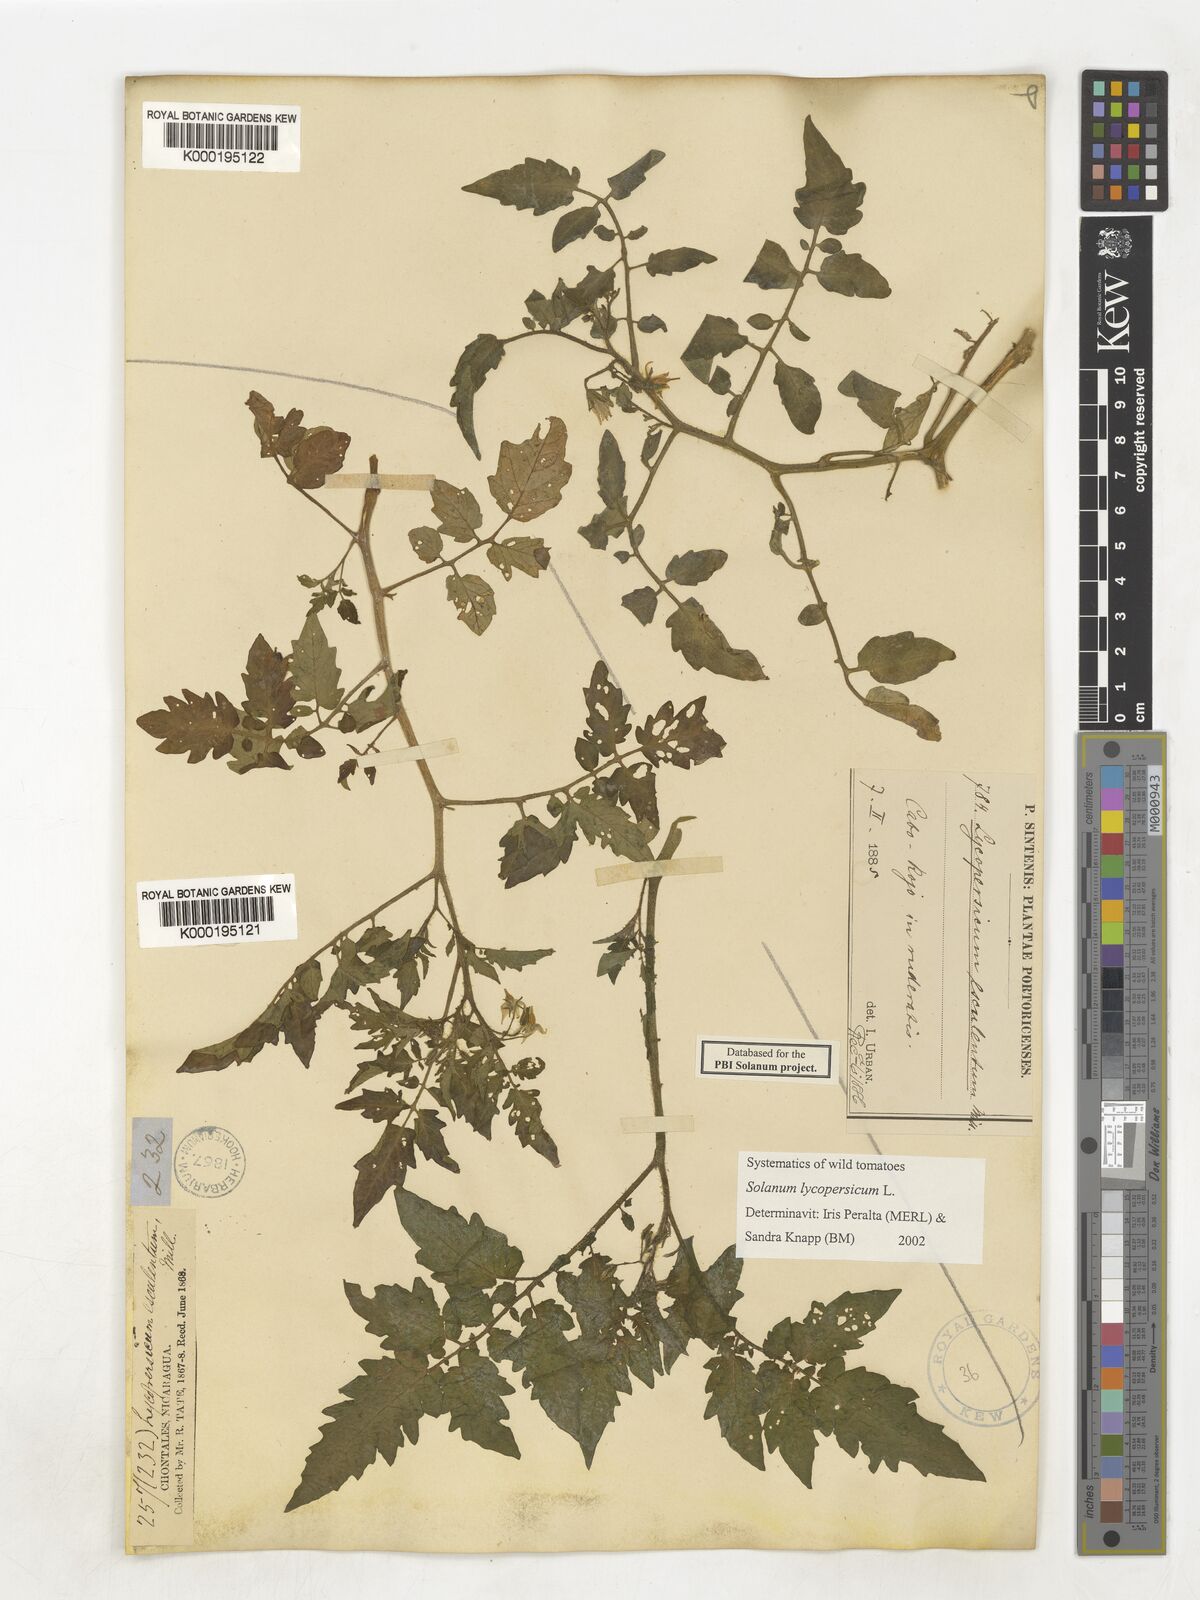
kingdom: Plantae
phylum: Tracheophyta
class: Magnoliopsida
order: Solanales
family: Solanaceae
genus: Solanum
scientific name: Solanum lycopersicum
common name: Garden tomato
